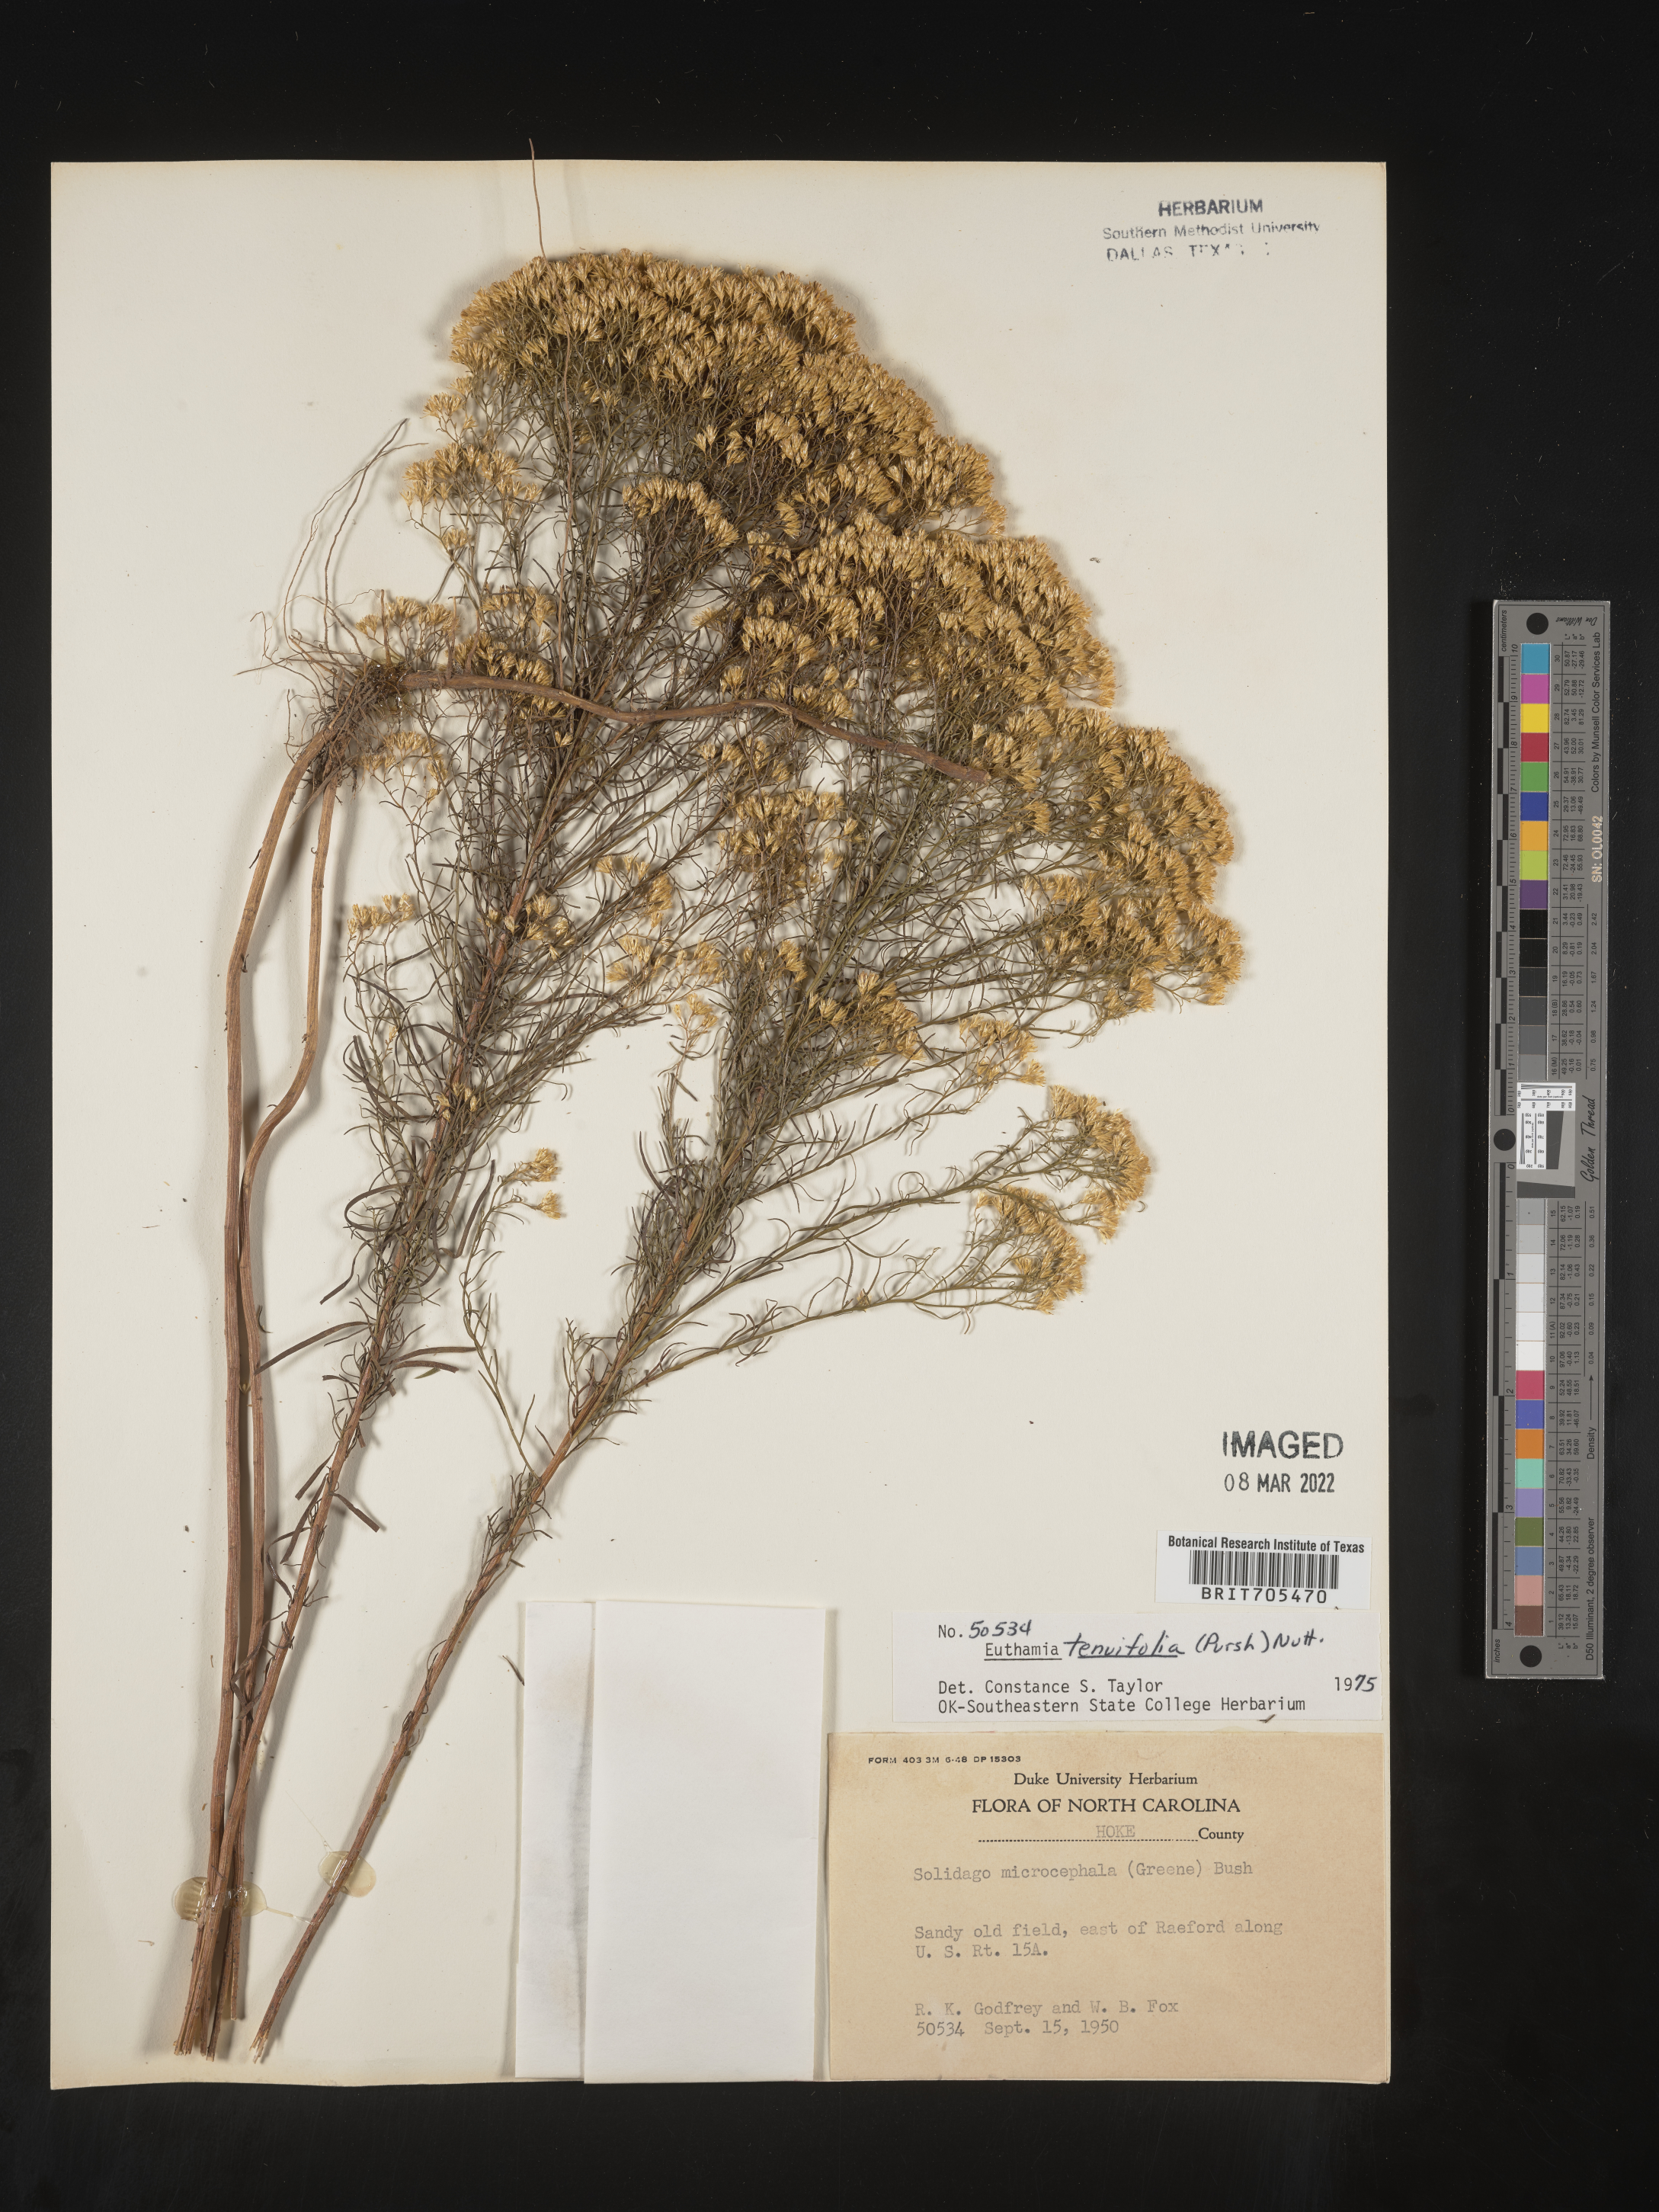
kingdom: Plantae
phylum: Tracheophyta
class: Magnoliopsida
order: Asterales
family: Asteraceae
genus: Euthamia
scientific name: Euthamia caroliniana
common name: Coastal plain goldentop
